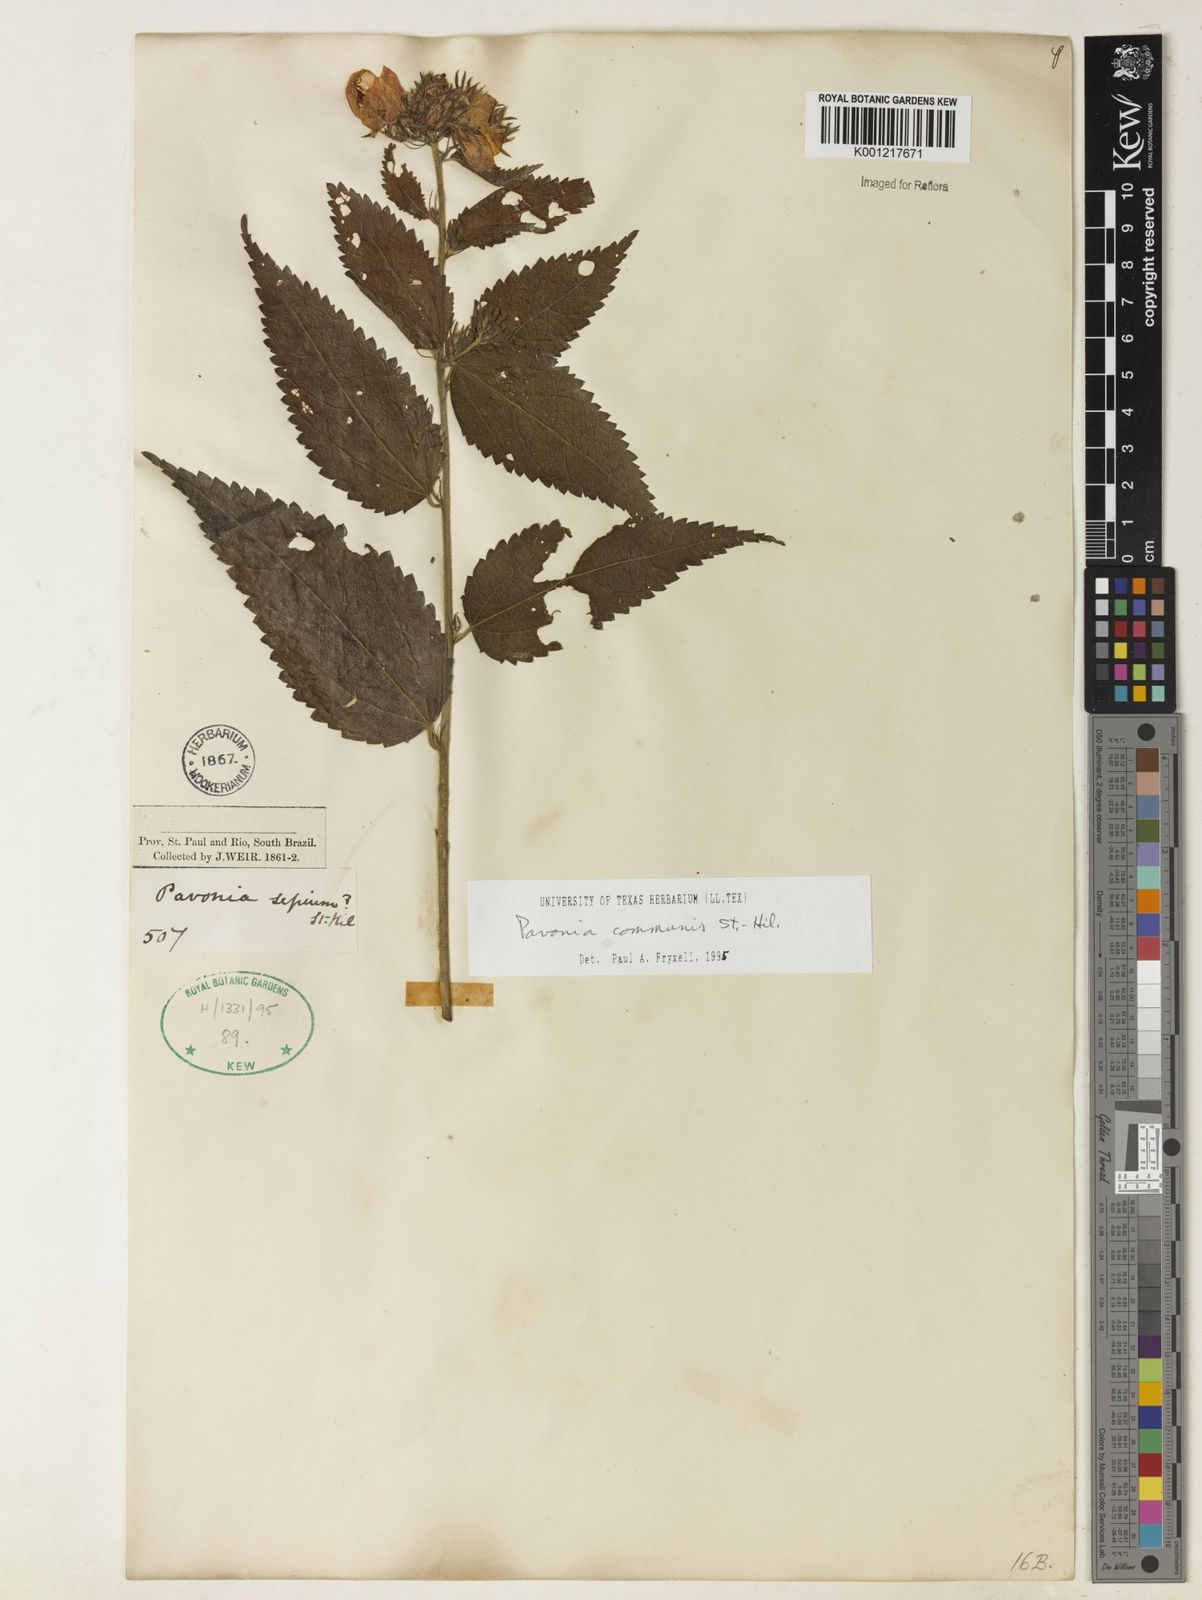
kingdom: Plantae
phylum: Tracheophyta
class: Magnoliopsida
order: Malvales
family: Malvaceae
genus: Pavonia
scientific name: Pavonia communis
